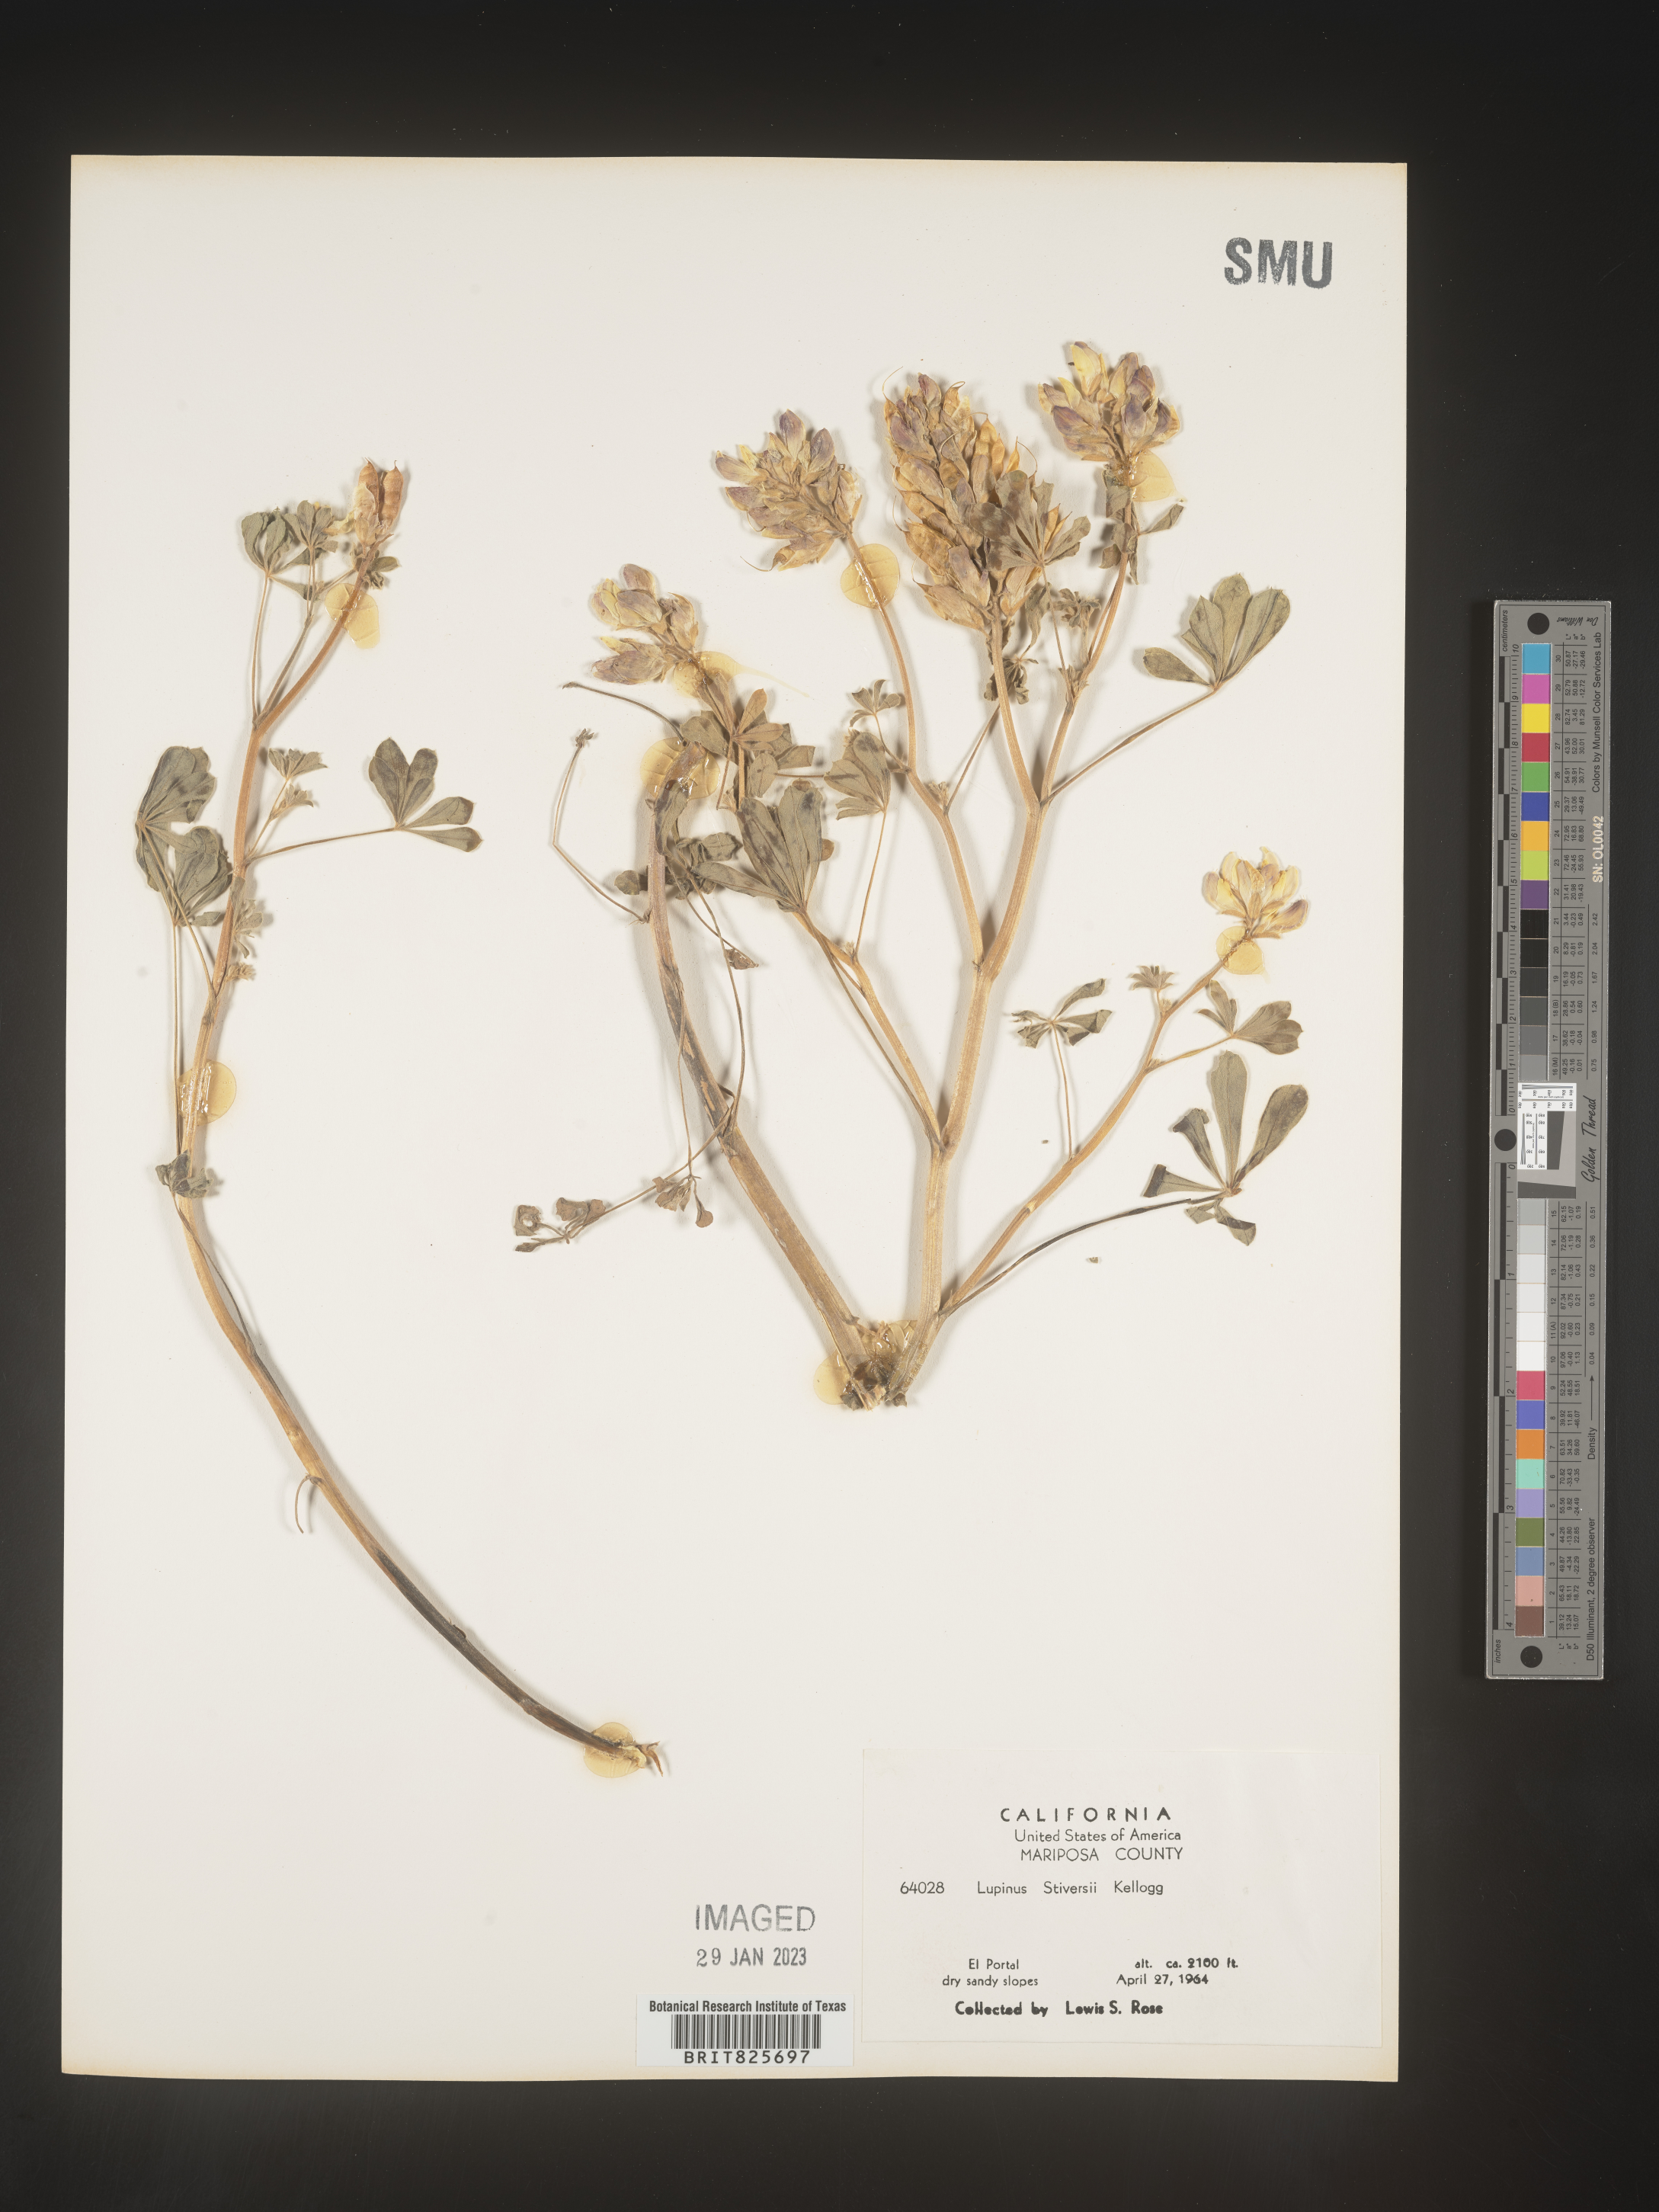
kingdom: Plantae
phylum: Tracheophyta
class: Magnoliopsida
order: Fabales
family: Fabaceae
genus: Lupinus
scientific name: Lupinus
